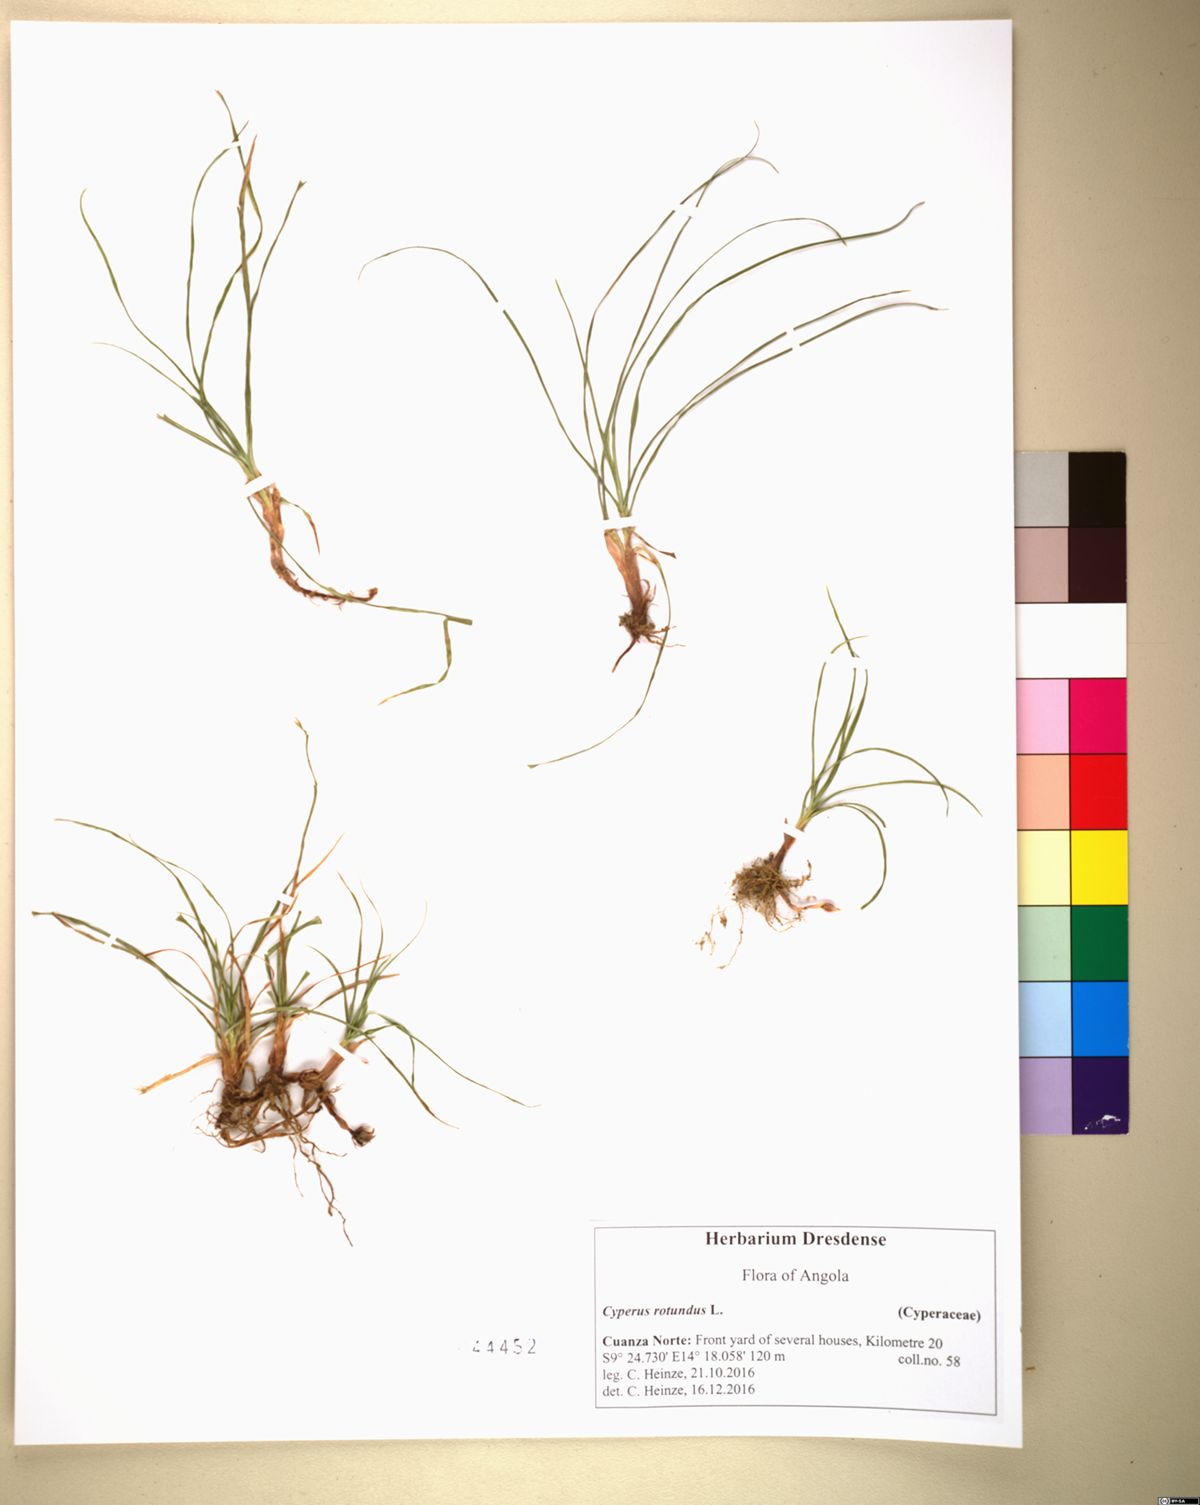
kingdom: Plantae
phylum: Tracheophyta
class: Liliopsida
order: Poales
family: Cyperaceae
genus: Cyperus
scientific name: Cyperus rotundus
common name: Nutgrass
